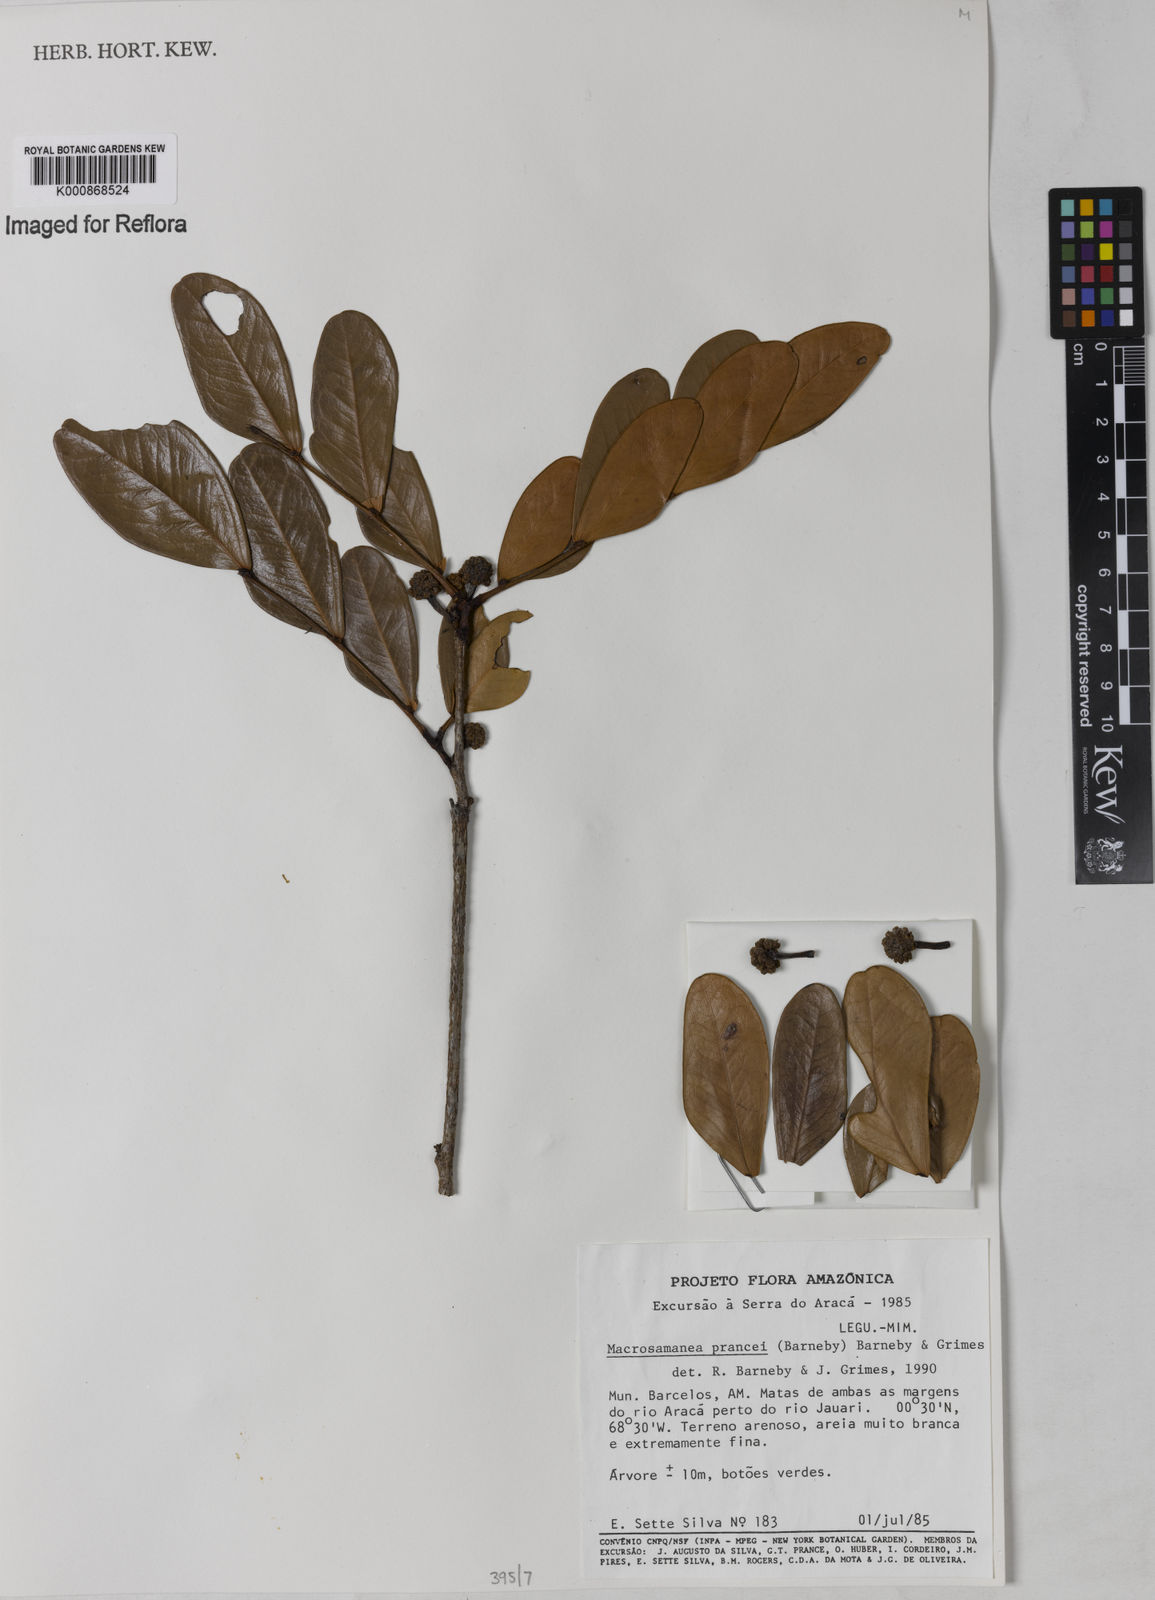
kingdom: Plantae
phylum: Tracheophyta
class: Magnoliopsida
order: Fabales
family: Fabaceae
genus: Macrosamanea
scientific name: Macrosamanea prancei
